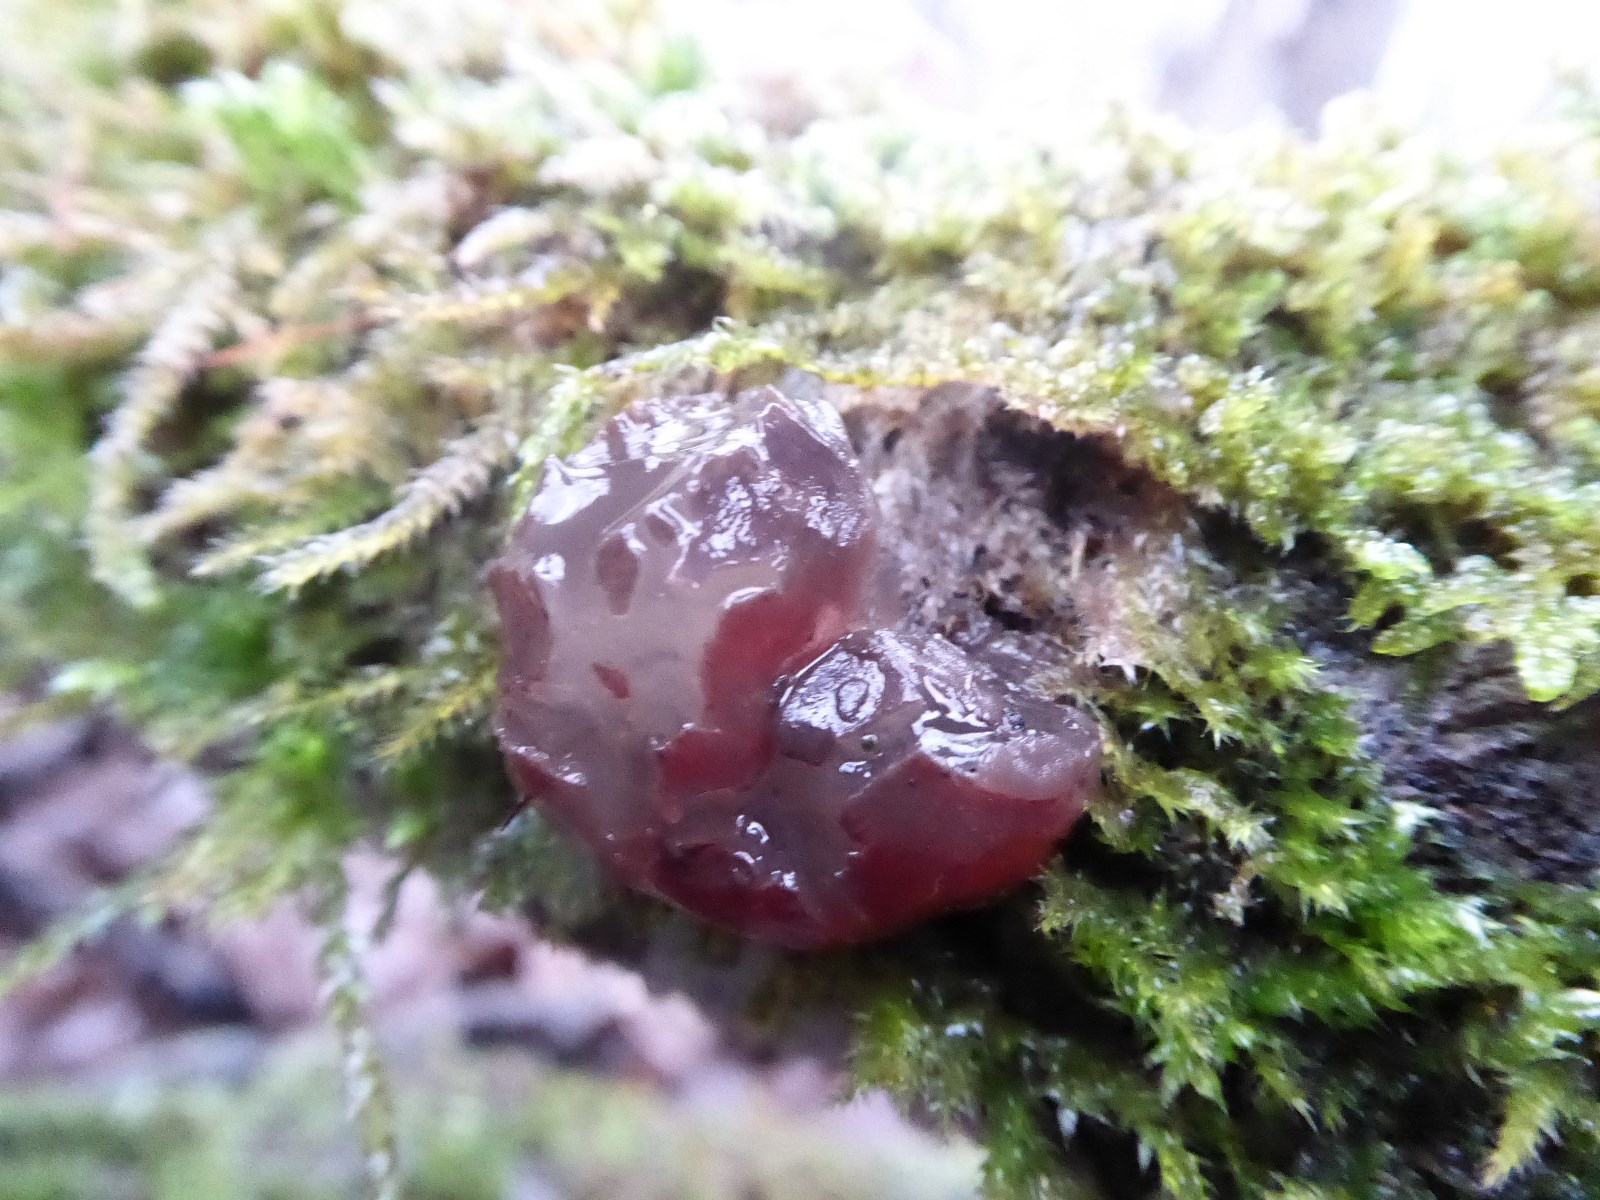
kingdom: Fungi
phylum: Ascomycota
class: Leotiomycetes
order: Helotiales
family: Gelatinodiscaceae
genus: Neobulgaria
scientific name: Neobulgaria pura
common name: bleg bævreskive
